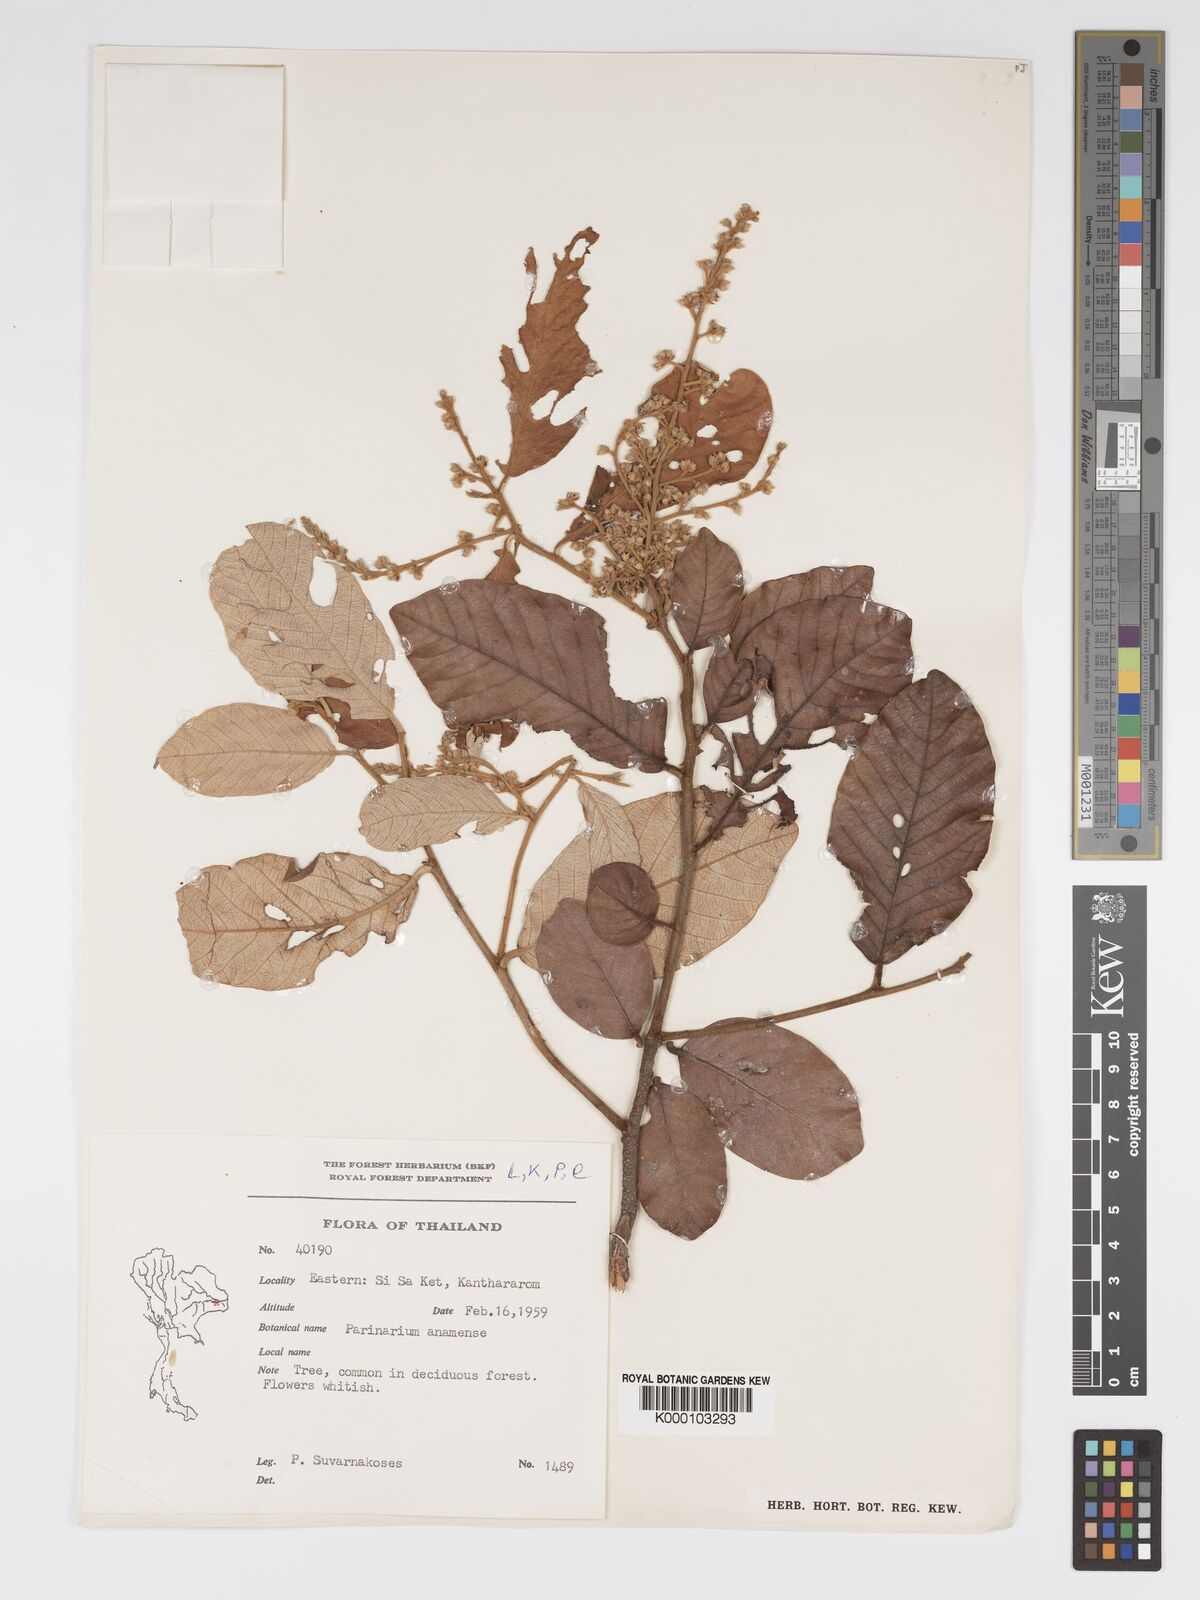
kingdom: Plantae
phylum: Tracheophyta
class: Magnoliopsida
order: Malpighiales
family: Chrysobalanaceae
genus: Parinari
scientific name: Parinari anamensis
